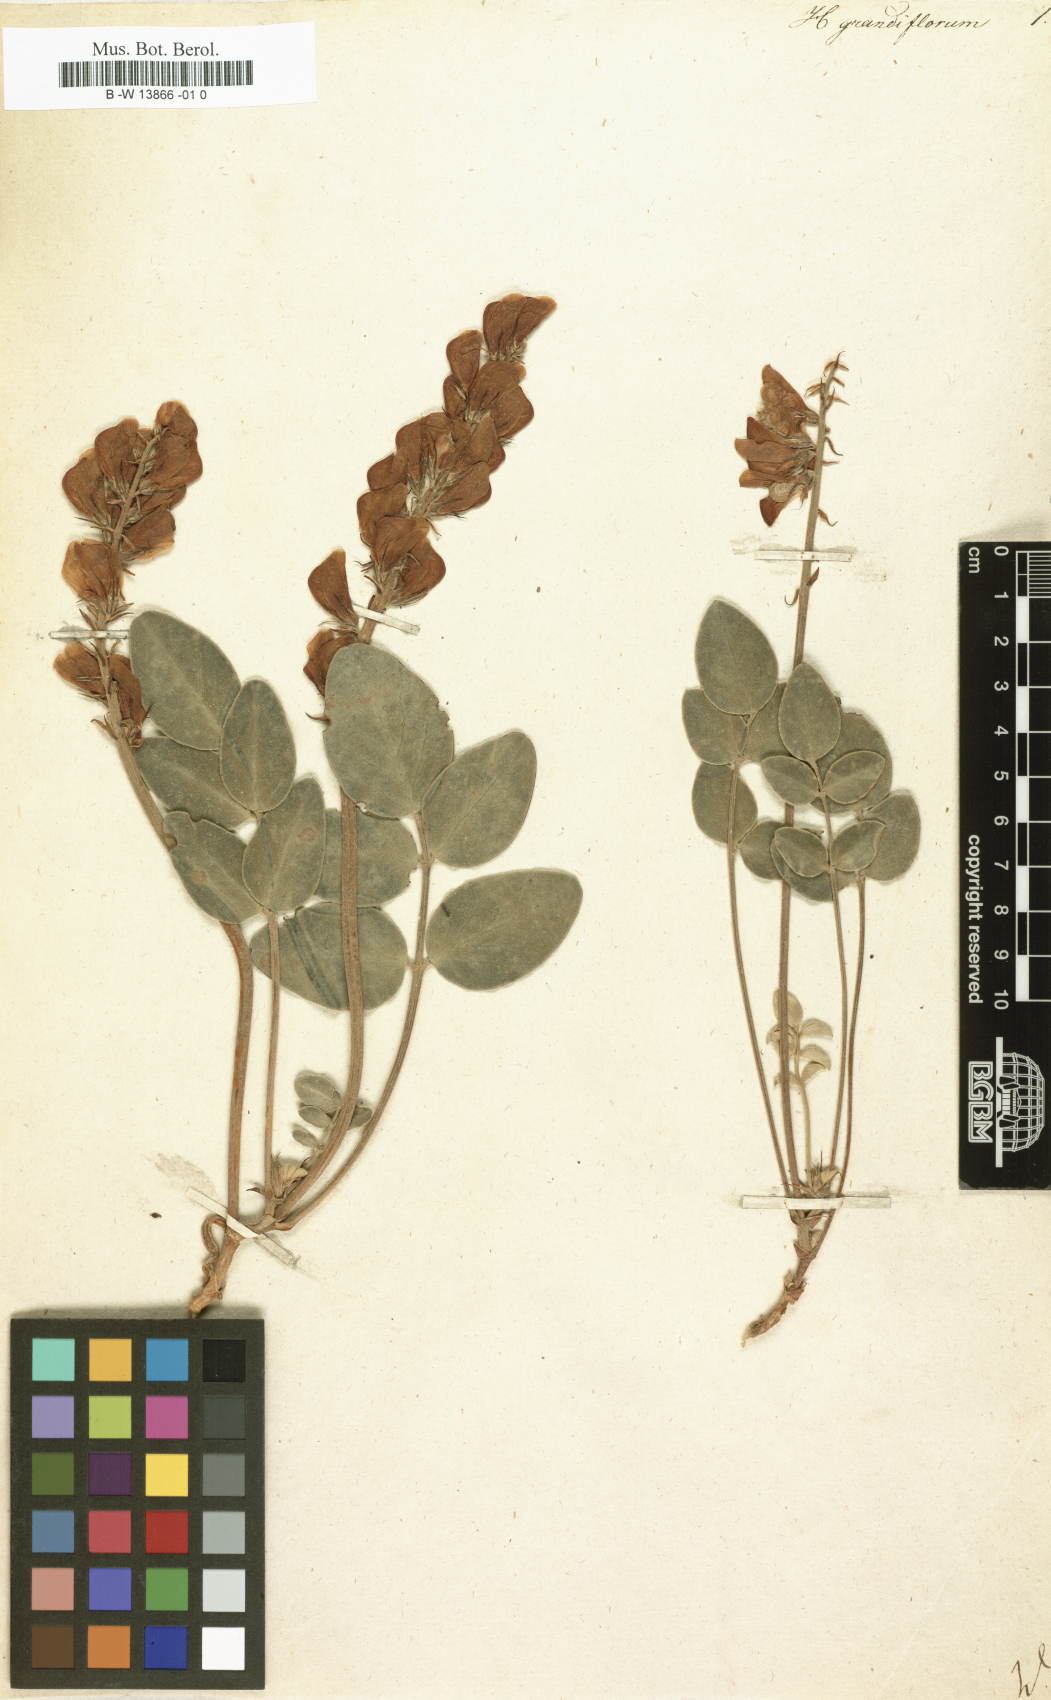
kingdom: Plantae
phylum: Tracheophyta
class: Magnoliopsida
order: Fabales
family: Fabaceae
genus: Hedysarum
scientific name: Hedysarum grandiflorum
